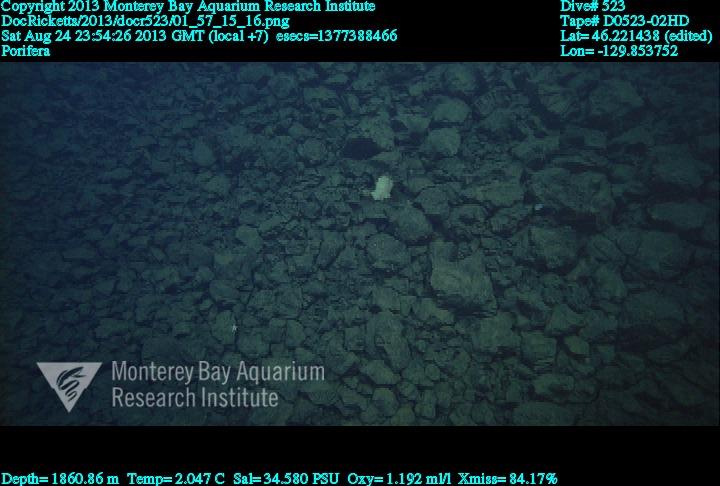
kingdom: Animalia
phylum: Porifera
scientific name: Porifera
